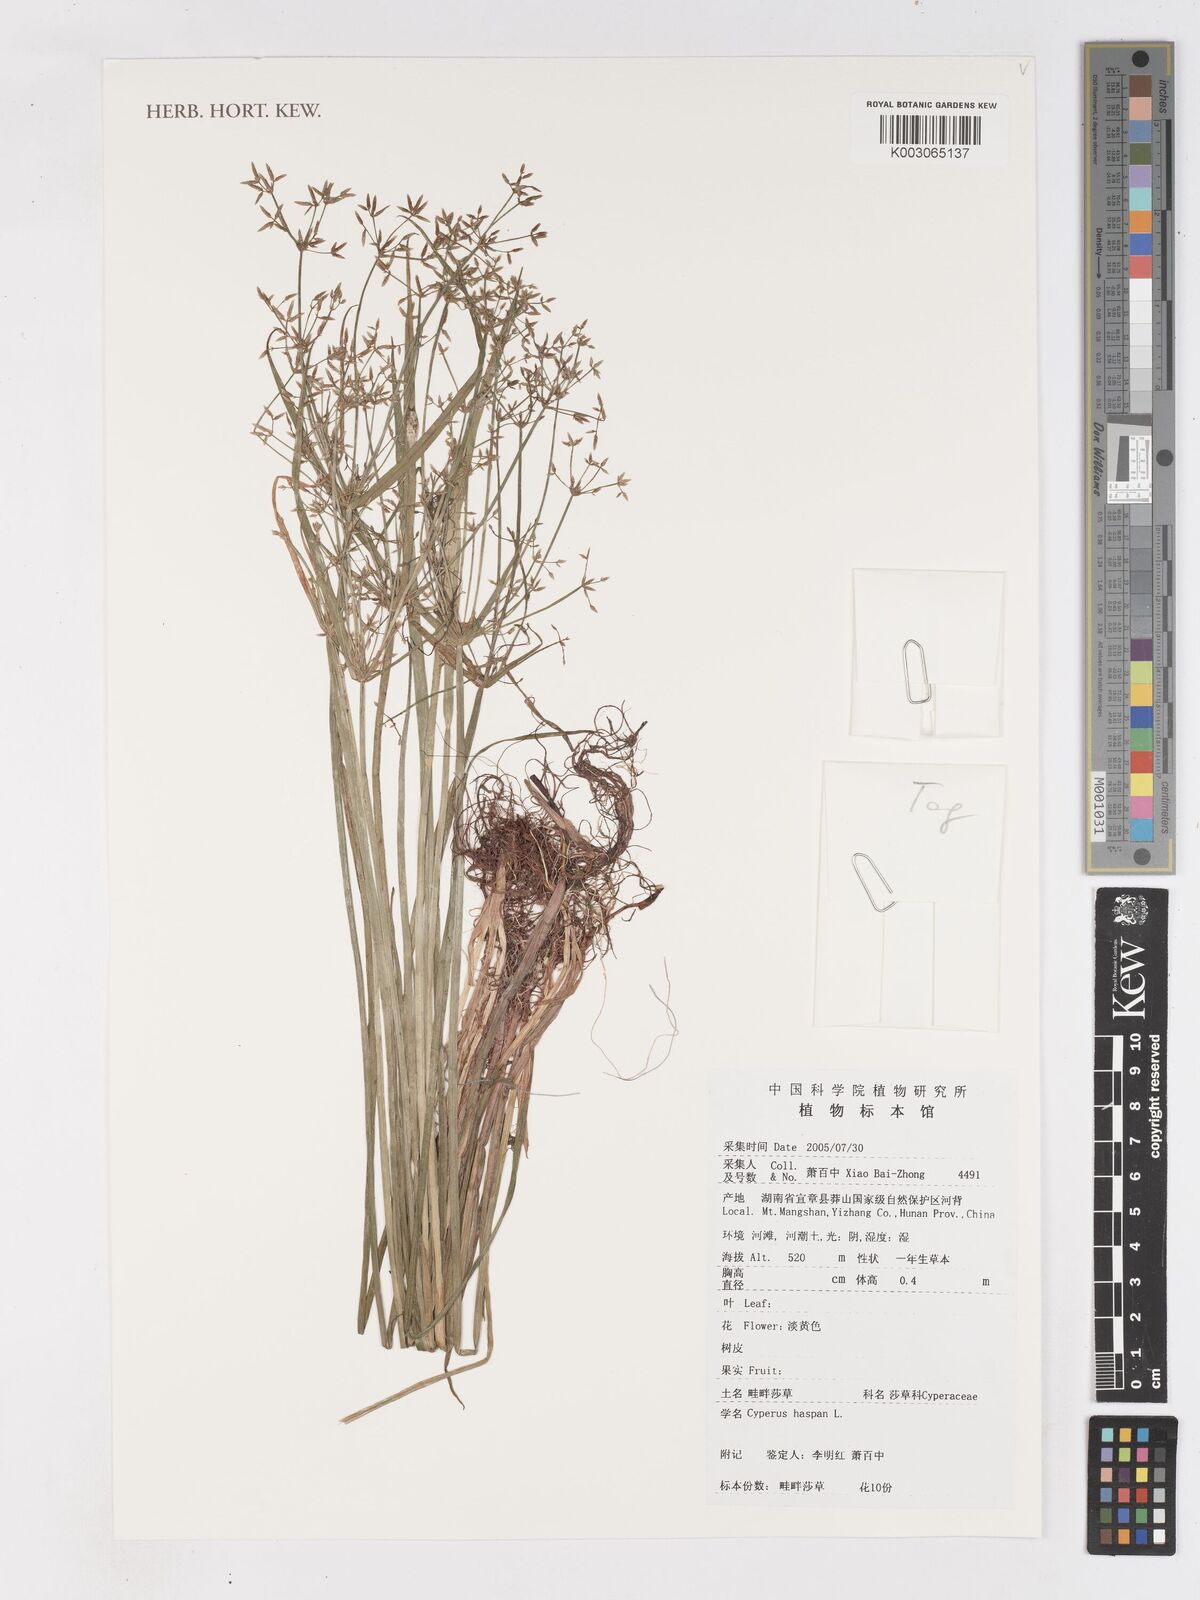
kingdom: Plantae
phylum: Tracheophyta
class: Liliopsida
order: Poales
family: Cyperaceae
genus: Cyperus
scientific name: Cyperus haspan
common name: Haspan flatsedge
